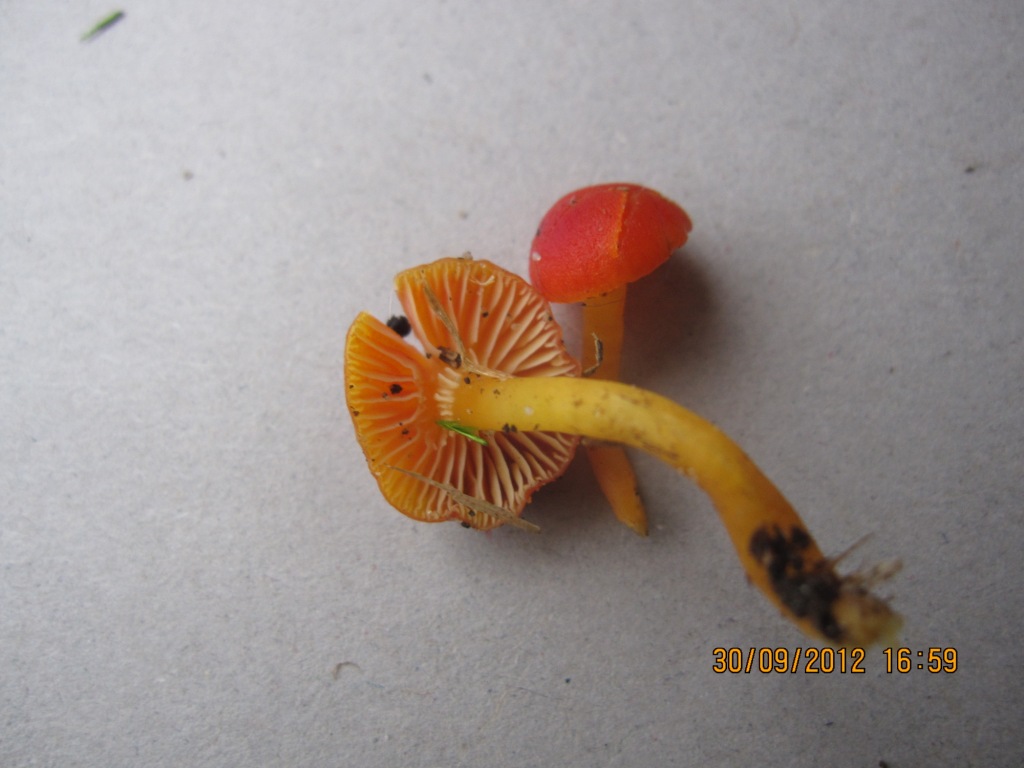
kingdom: Fungi
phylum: Basidiomycota
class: Agaricomycetes
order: Agaricales
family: Hygrophoraceae
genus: Hygrocybe
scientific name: Hygrocybe insipida
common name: liden vokshat
